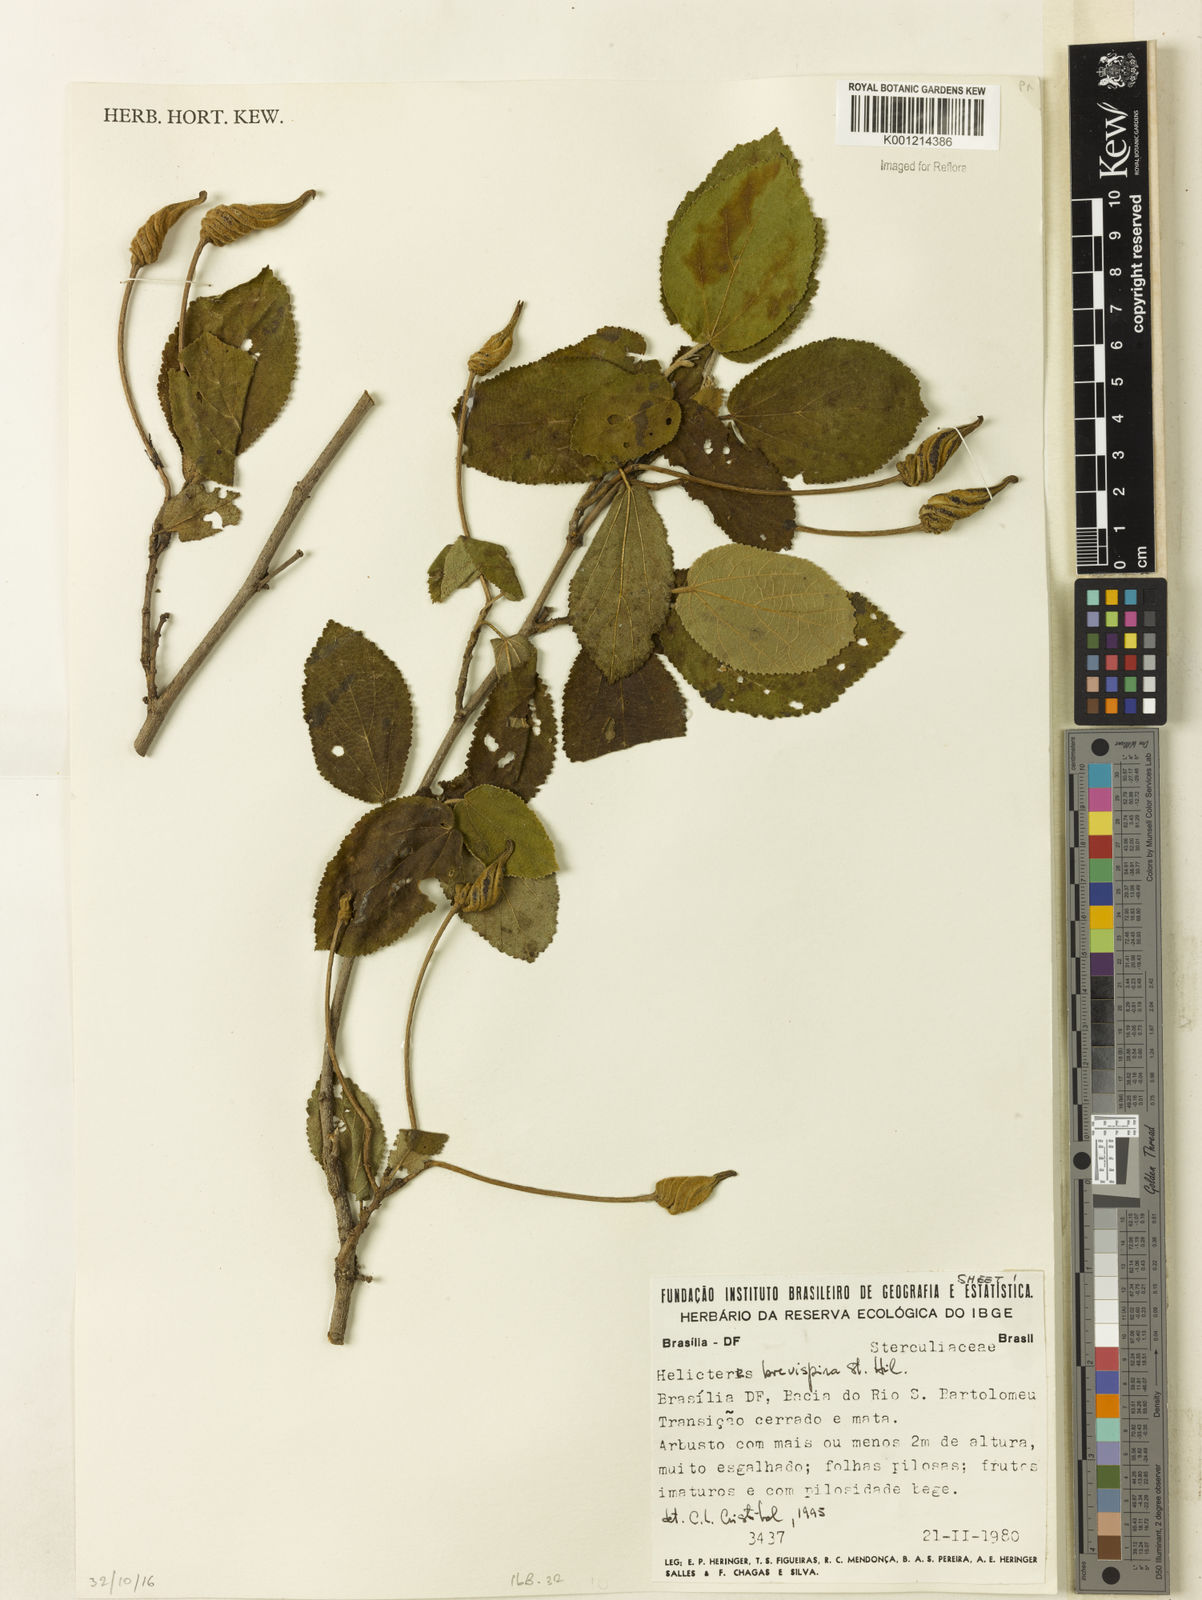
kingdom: Plantae
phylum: Tracheophyta
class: Magnoliopsida
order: Malvales
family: Malvaceae
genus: Helicteres
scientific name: Helicteres
